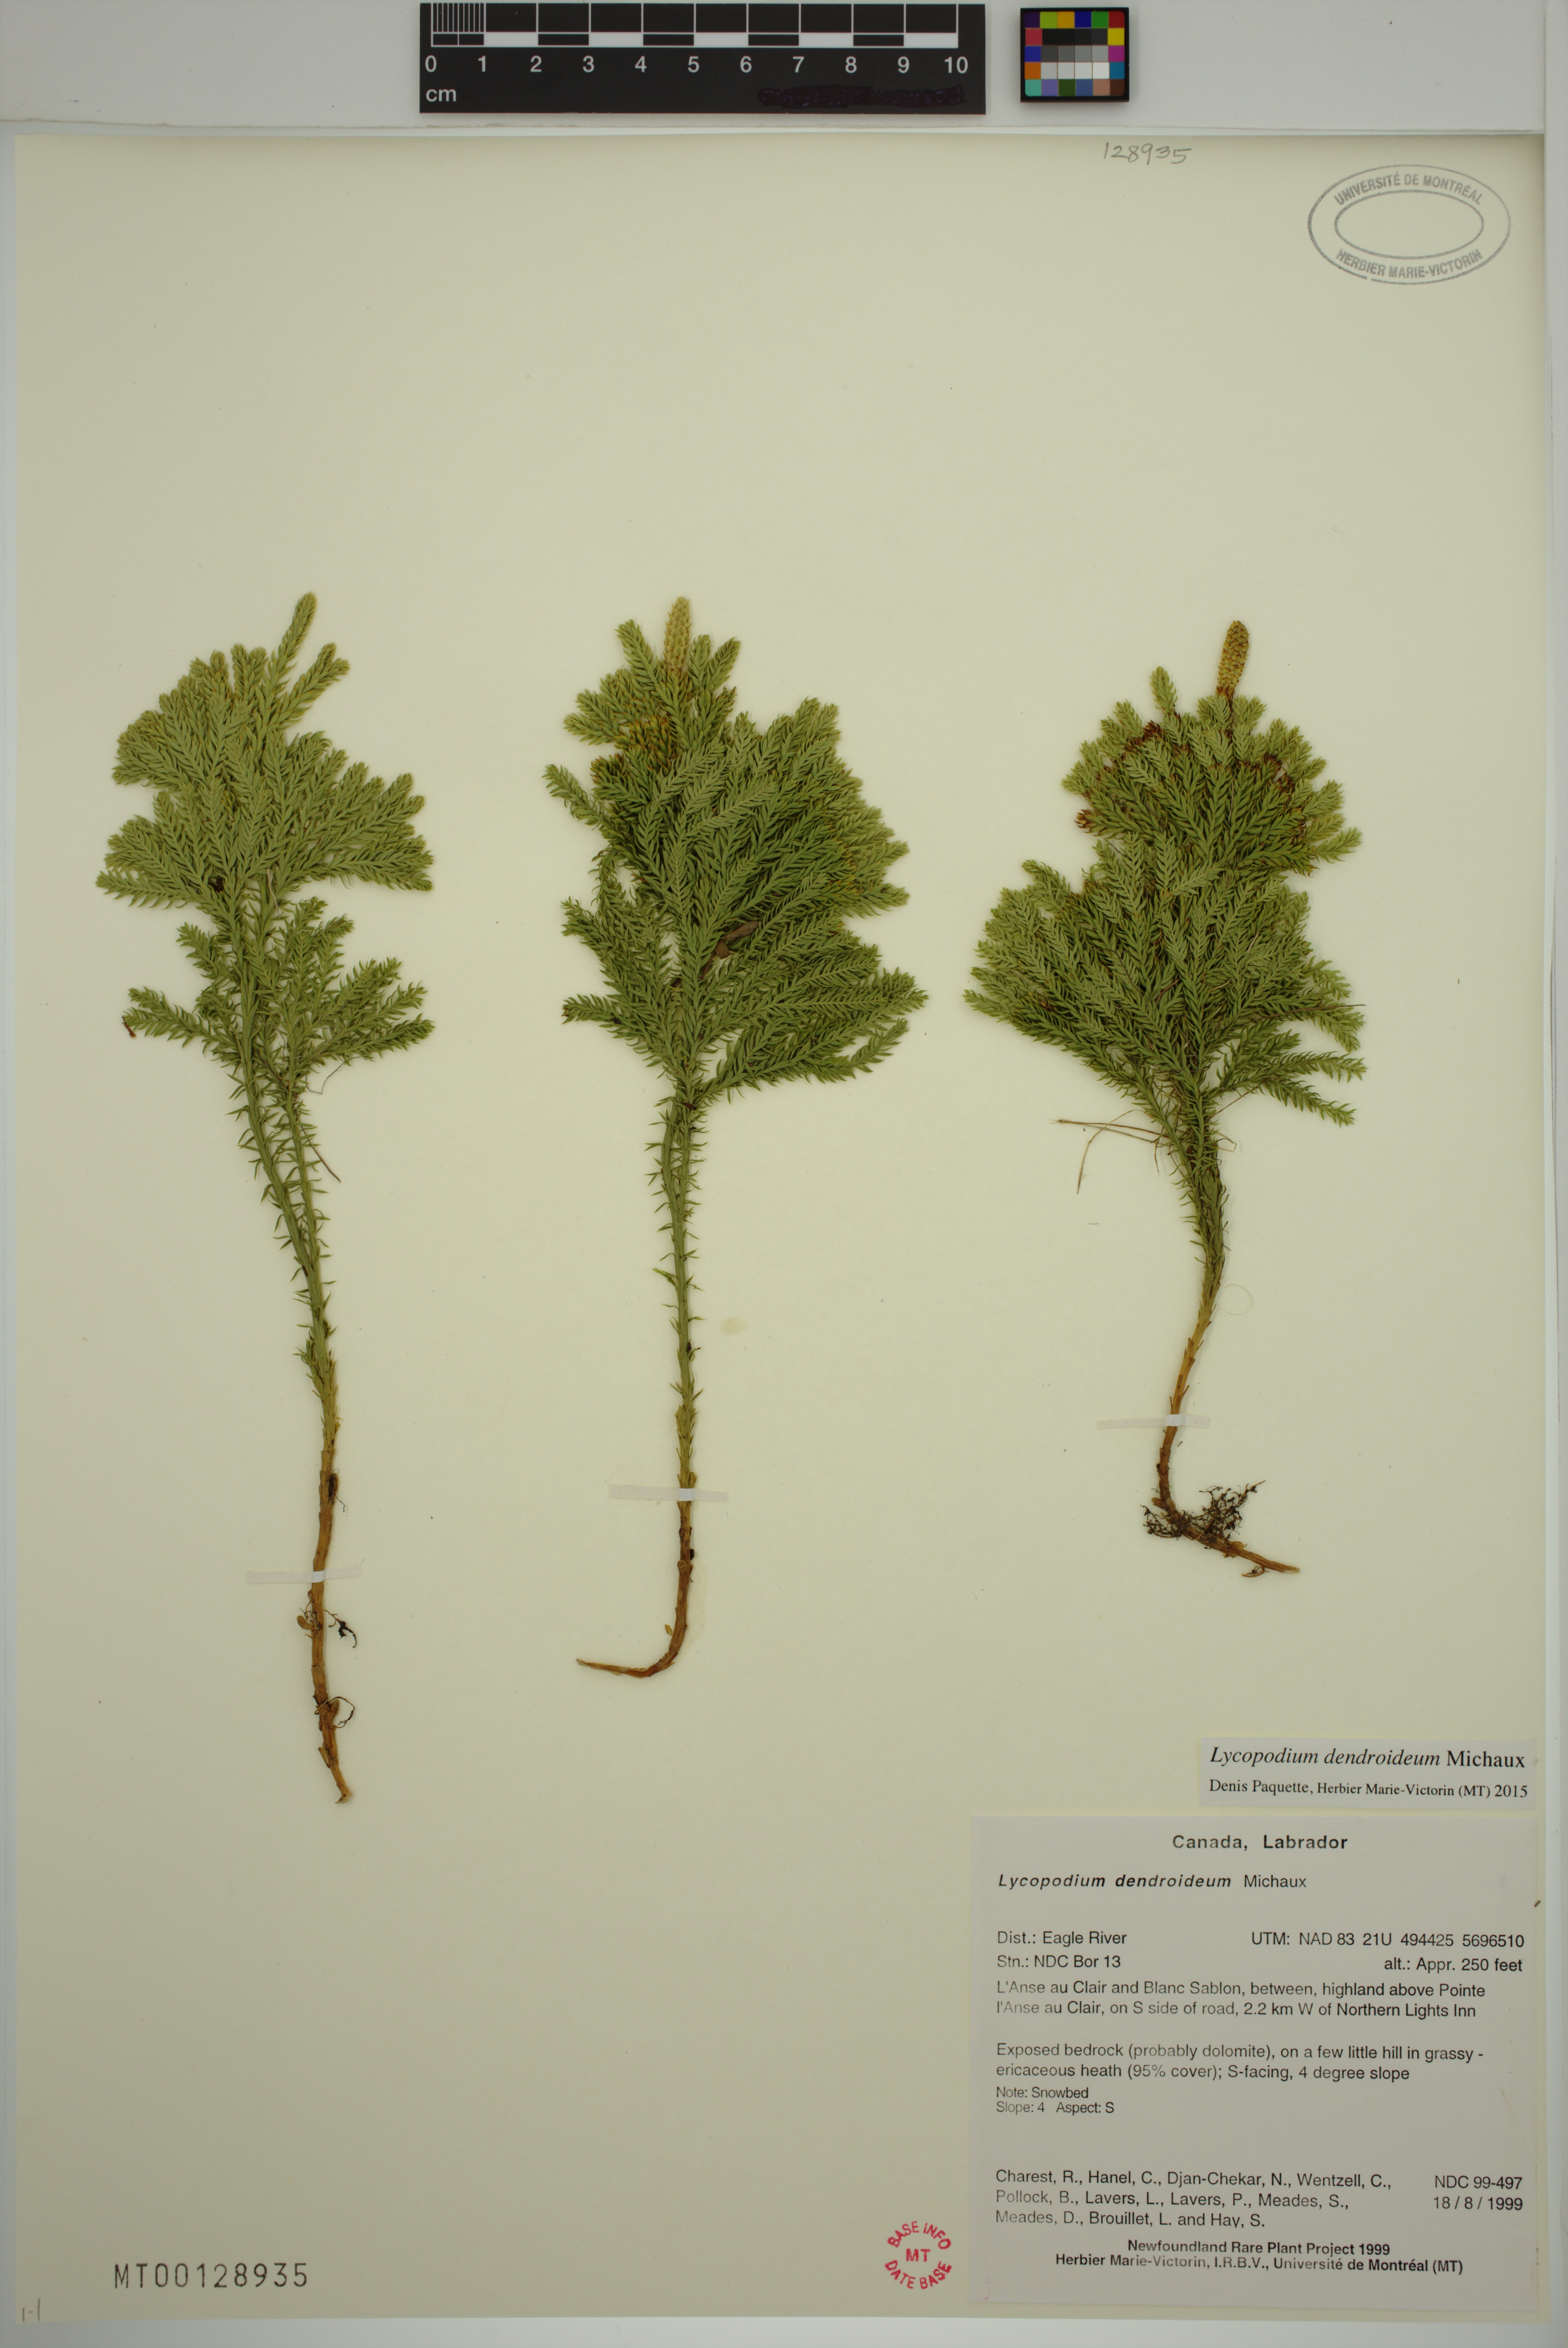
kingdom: Plantae
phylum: Tracheophyta
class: Lycopodiopsida
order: Lycopodiales
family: Lycopodiaceae
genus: Dendrolycopodium
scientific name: Dendrolycopodium dendroideum
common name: Northern tree-clubmoss
